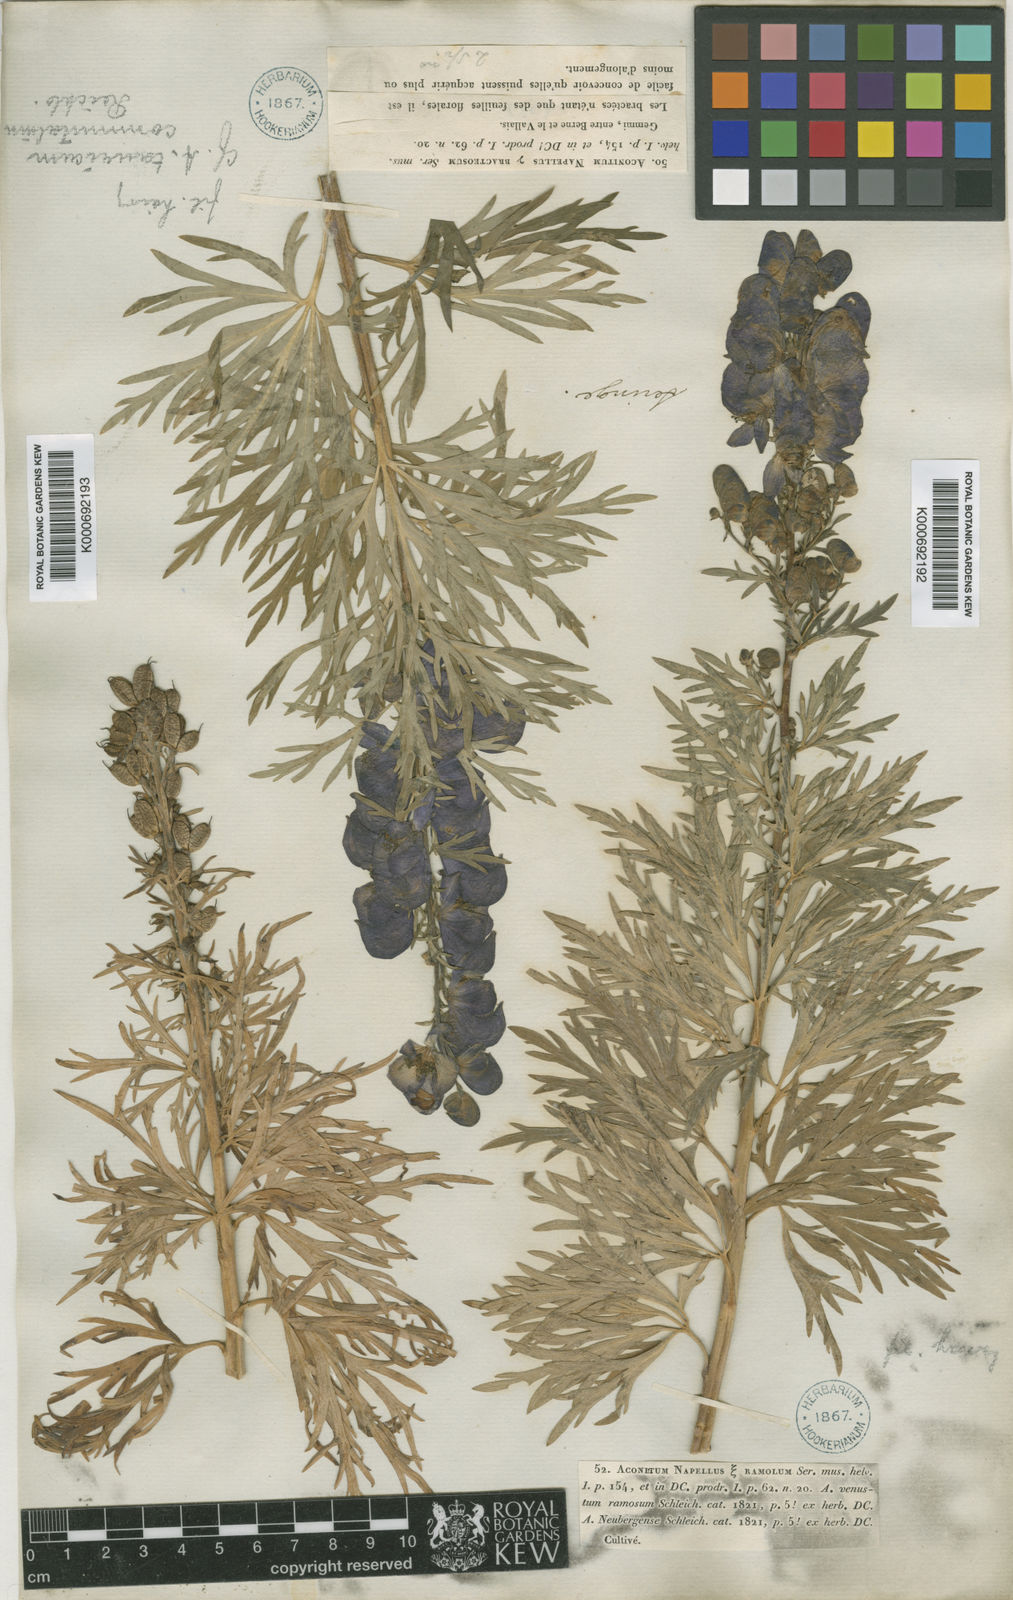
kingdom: Plantae
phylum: Tracheophyta
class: Magnoliopsida
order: Ranunculales
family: Ranunculaceae
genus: Aconitum
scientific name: Aconitum
